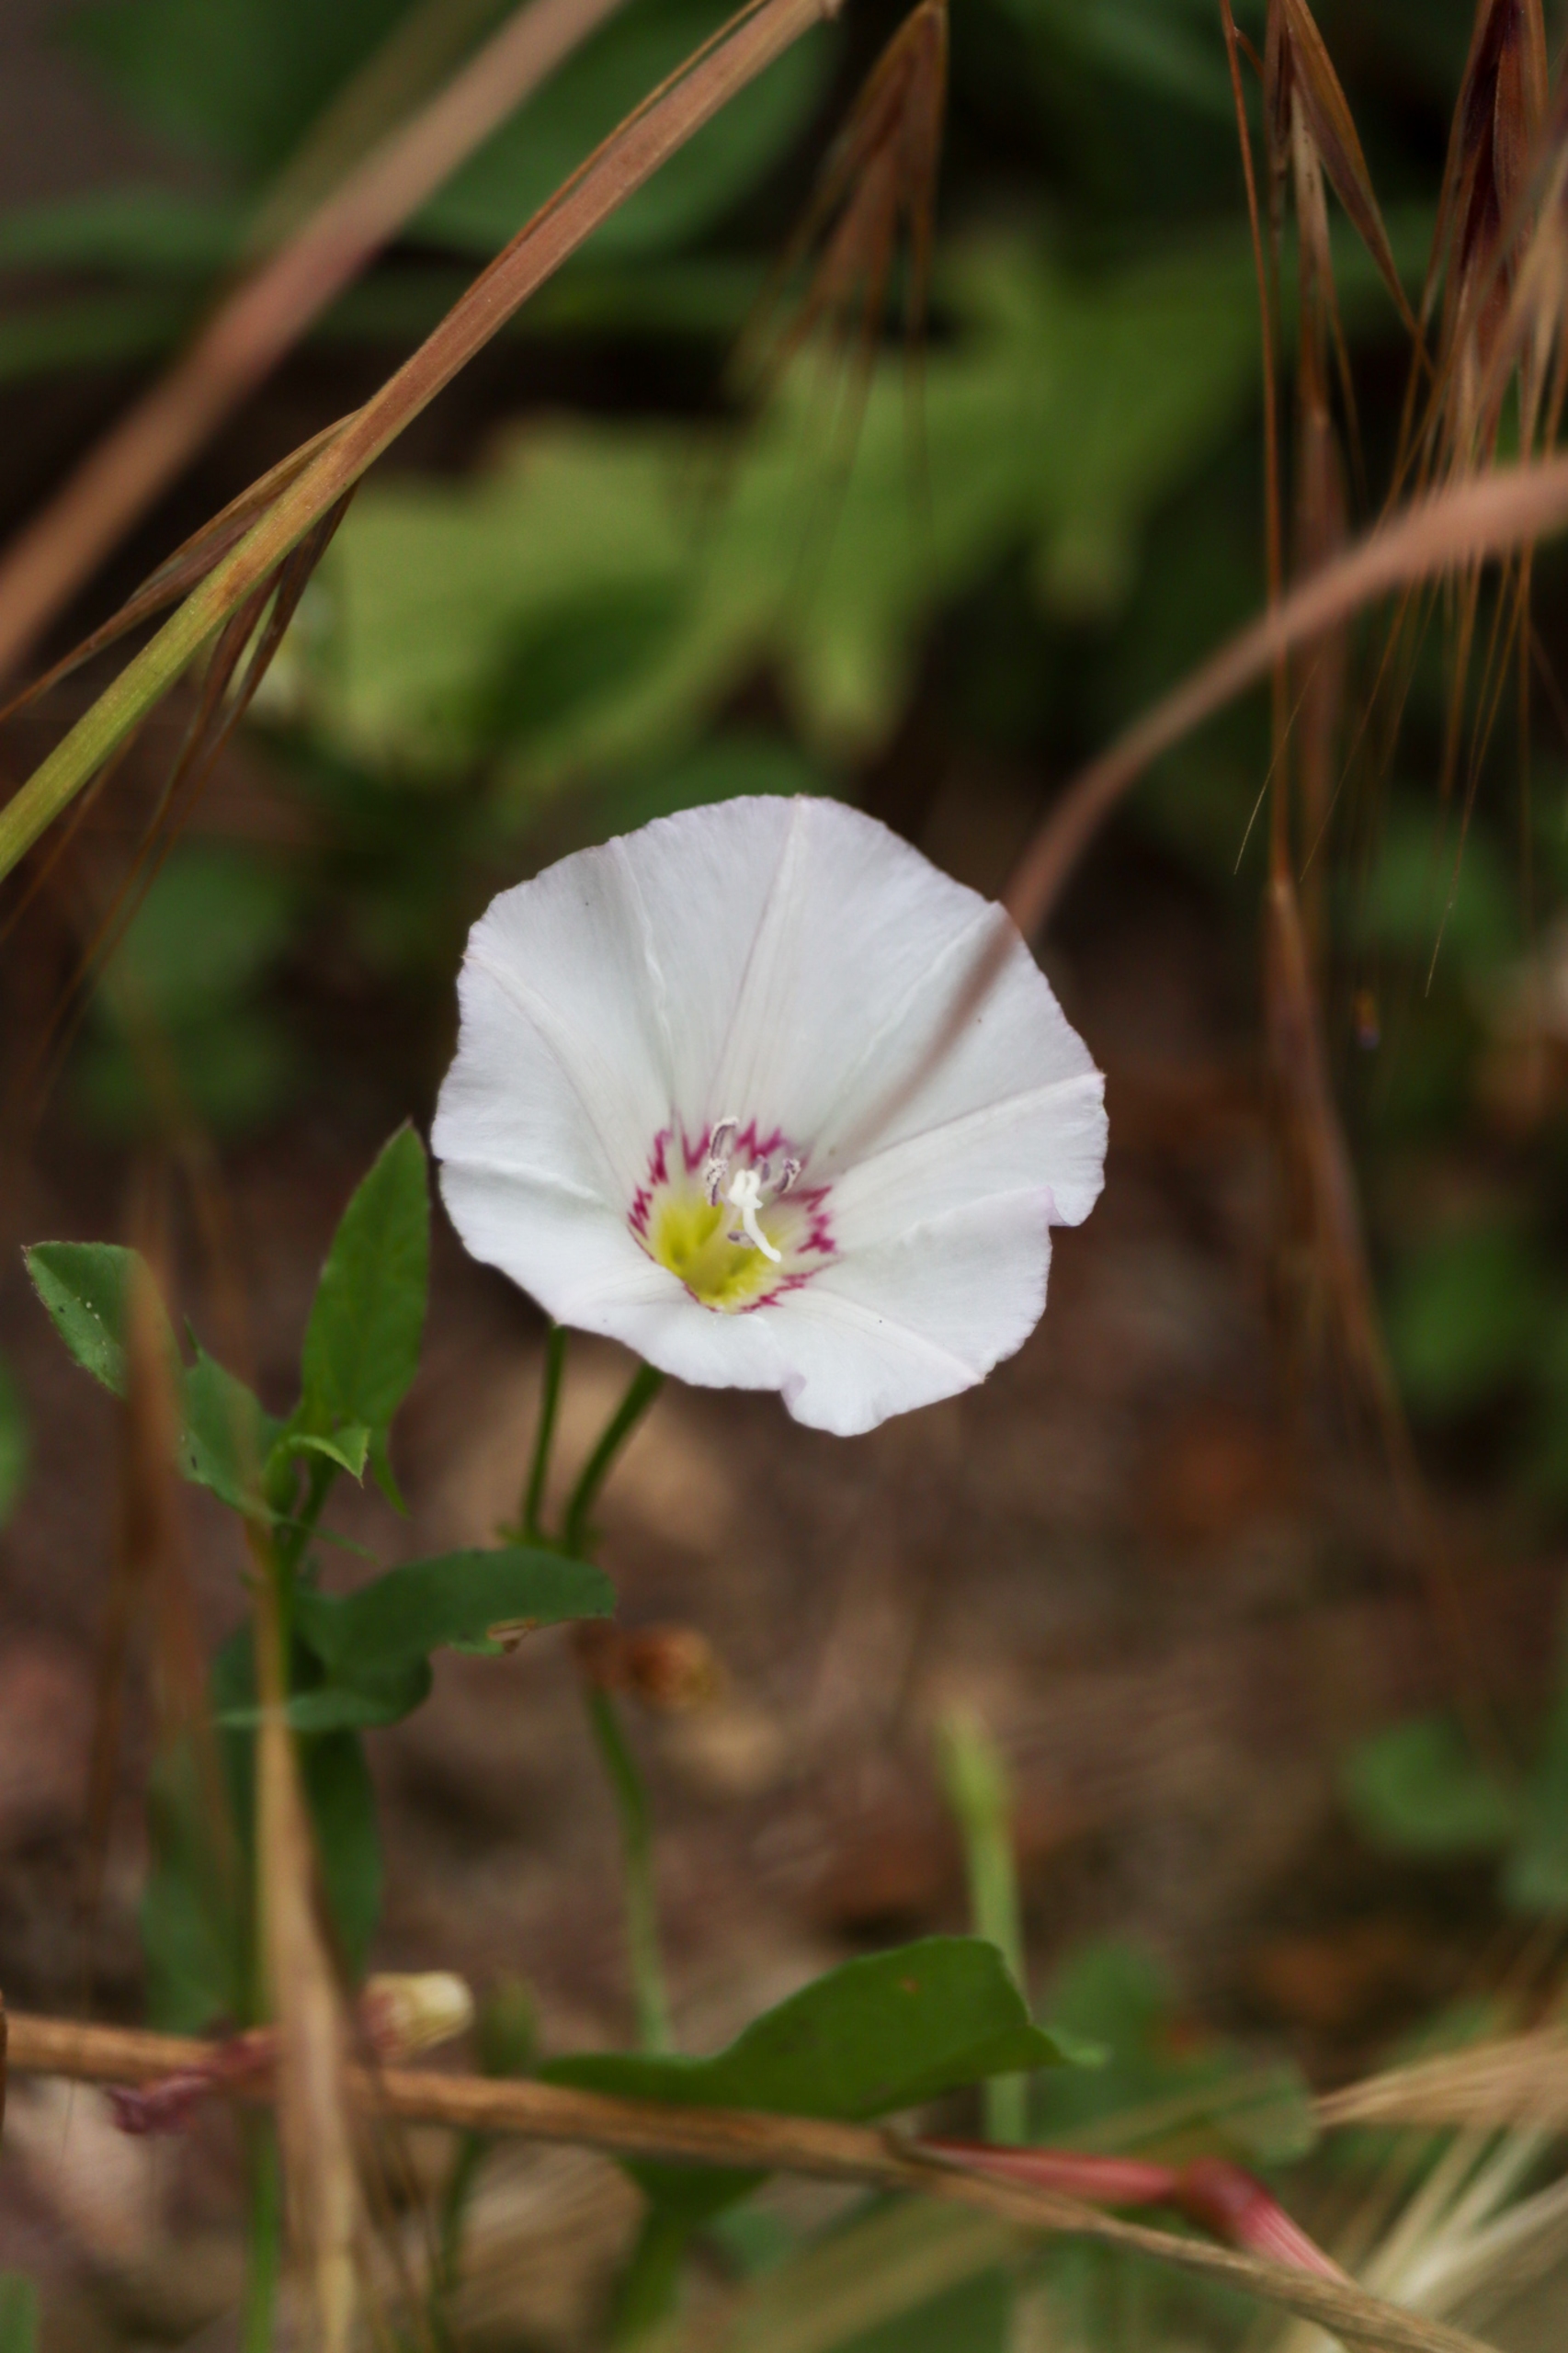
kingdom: Plantae
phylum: Tracheophyta
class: Magnoliopsida
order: Solanales
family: Convolvulaceae
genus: Convolvulus
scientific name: Convolvulus arvensis
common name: Ager-snerle
